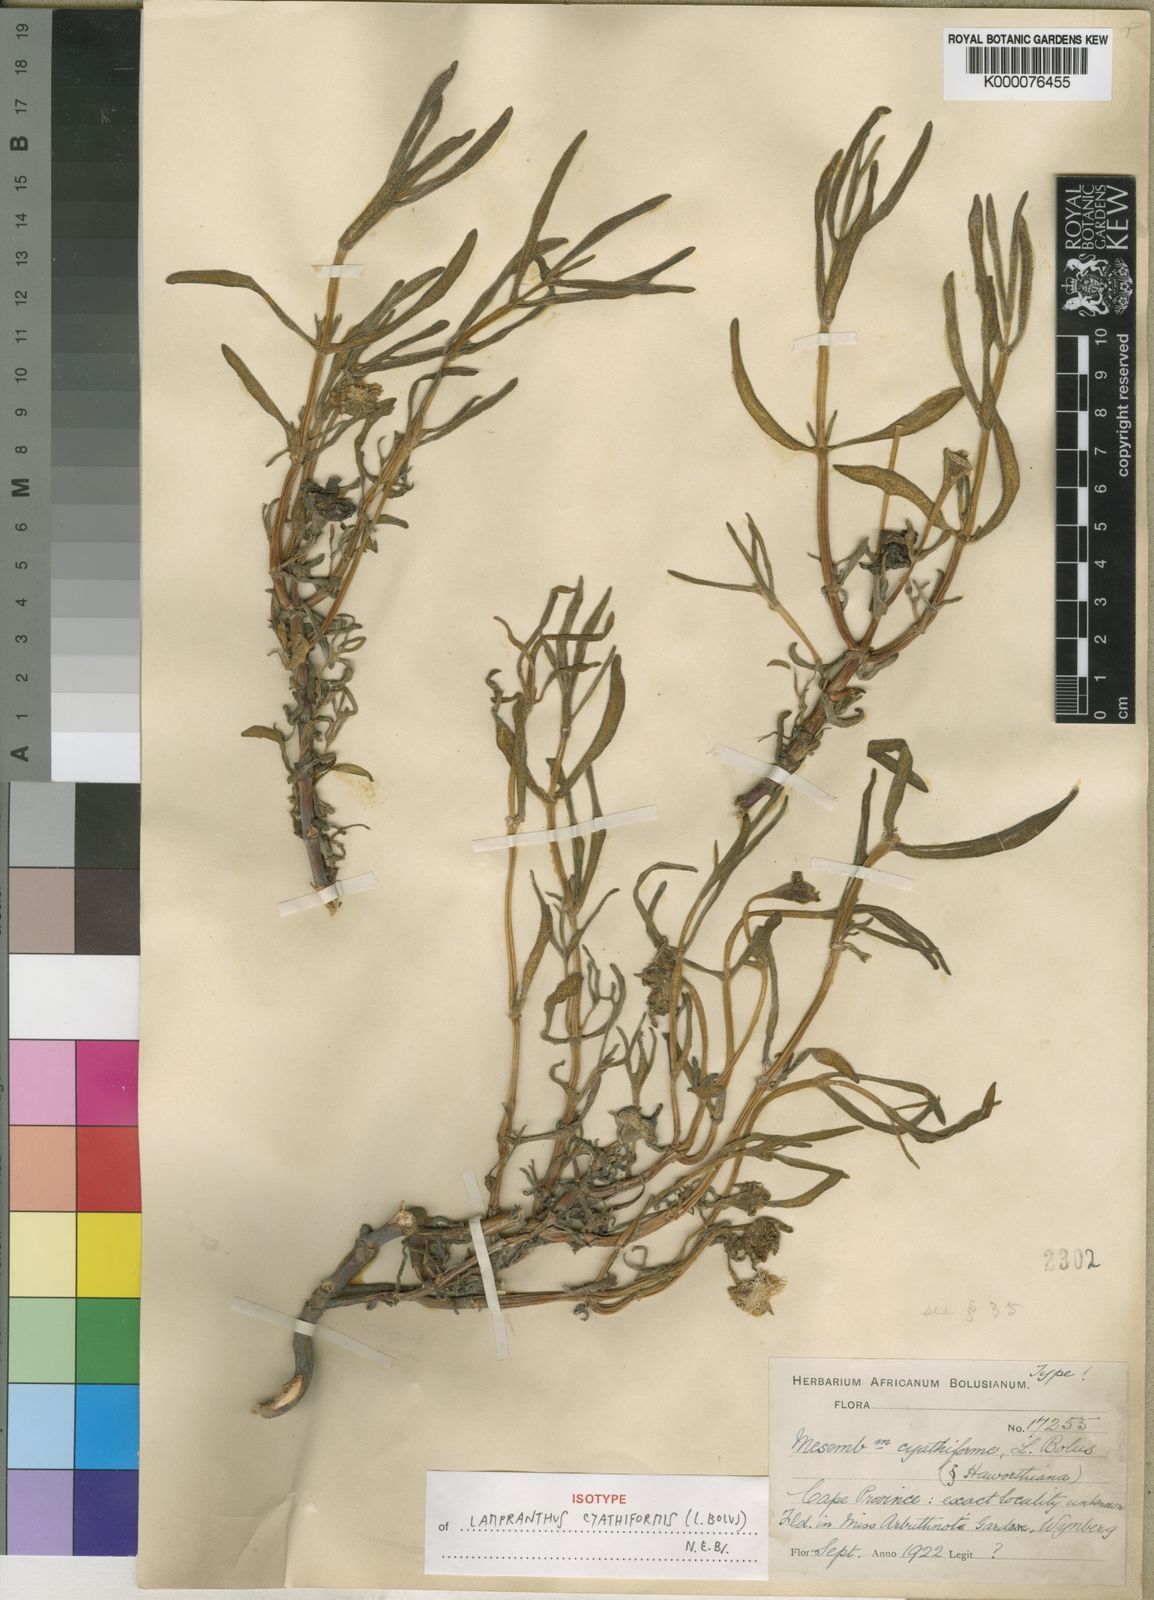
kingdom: Plantae
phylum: Tracheophyta
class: Magnoliopsida
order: Caryophyllales
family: Aizoaceae
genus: Lampranthus
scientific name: Lampranthus cyathiformis
